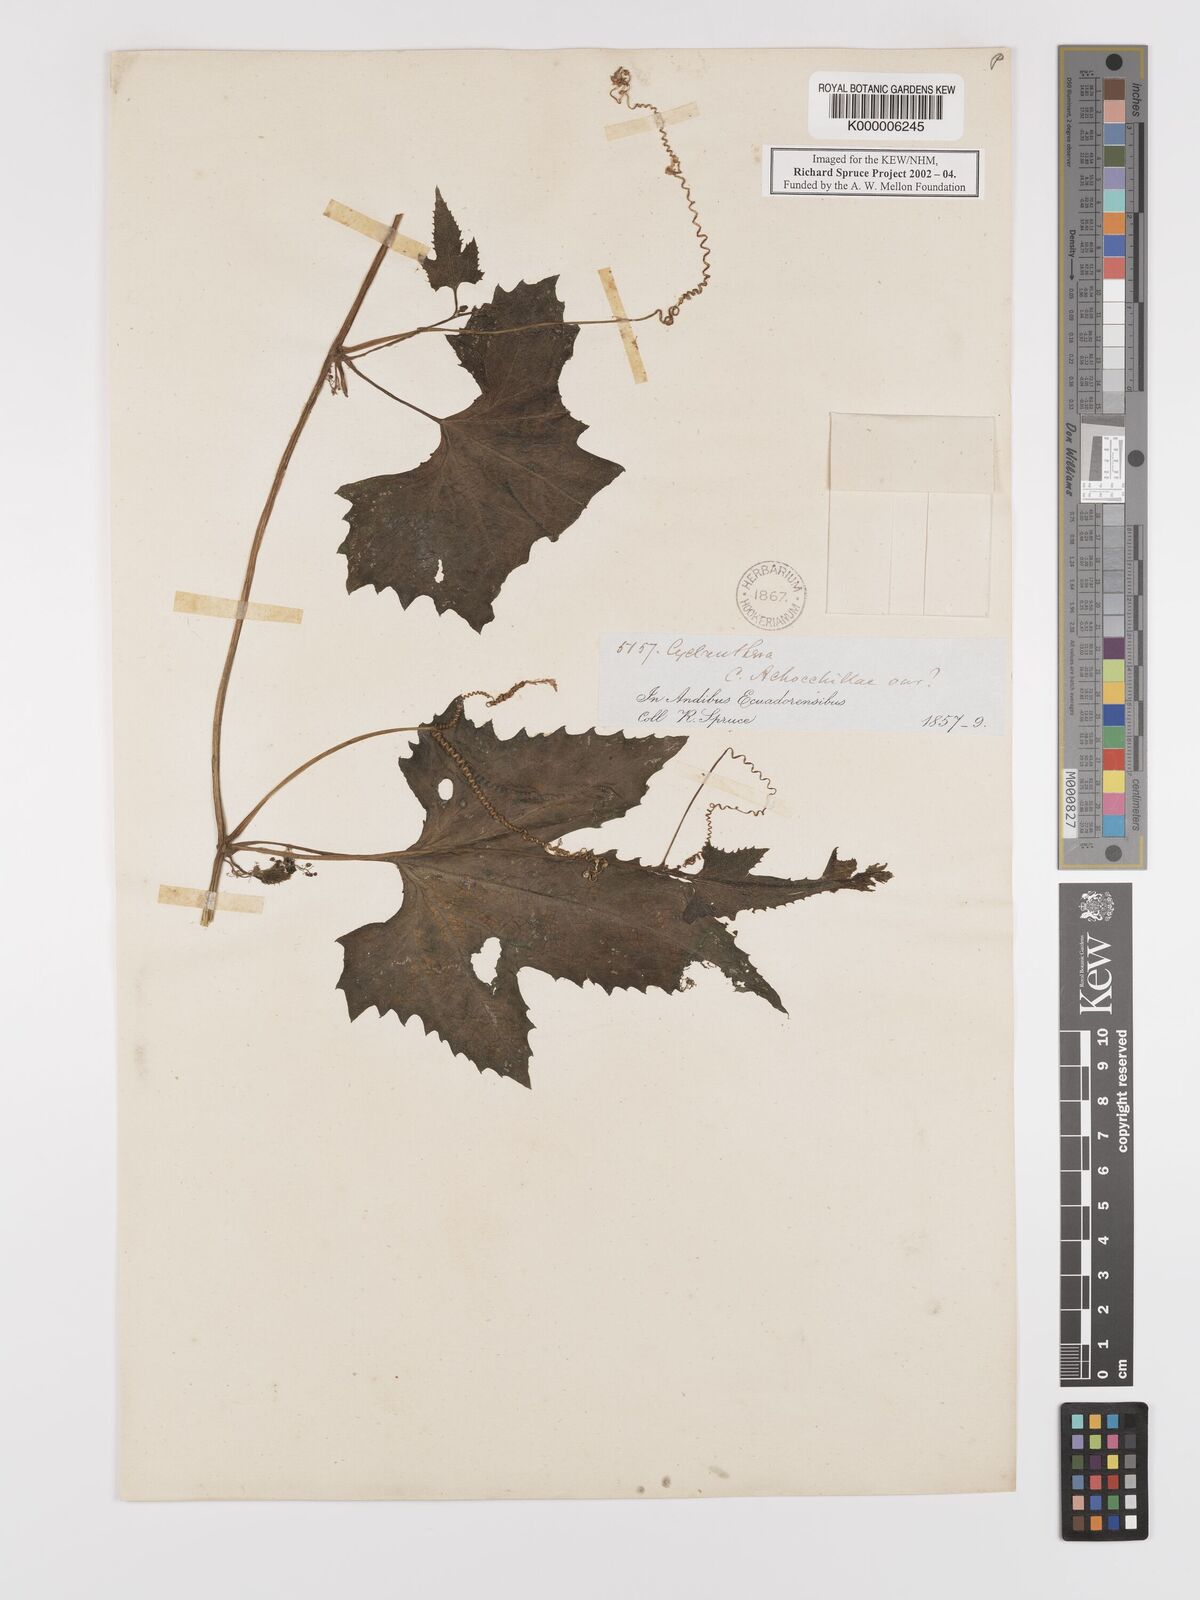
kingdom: Plantae
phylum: Tracheophyta
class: Magnoliopsida
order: Cucurbitales
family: Cucurbitaceae
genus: Cyclanthera
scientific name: Cyclanthera brachybotrys
